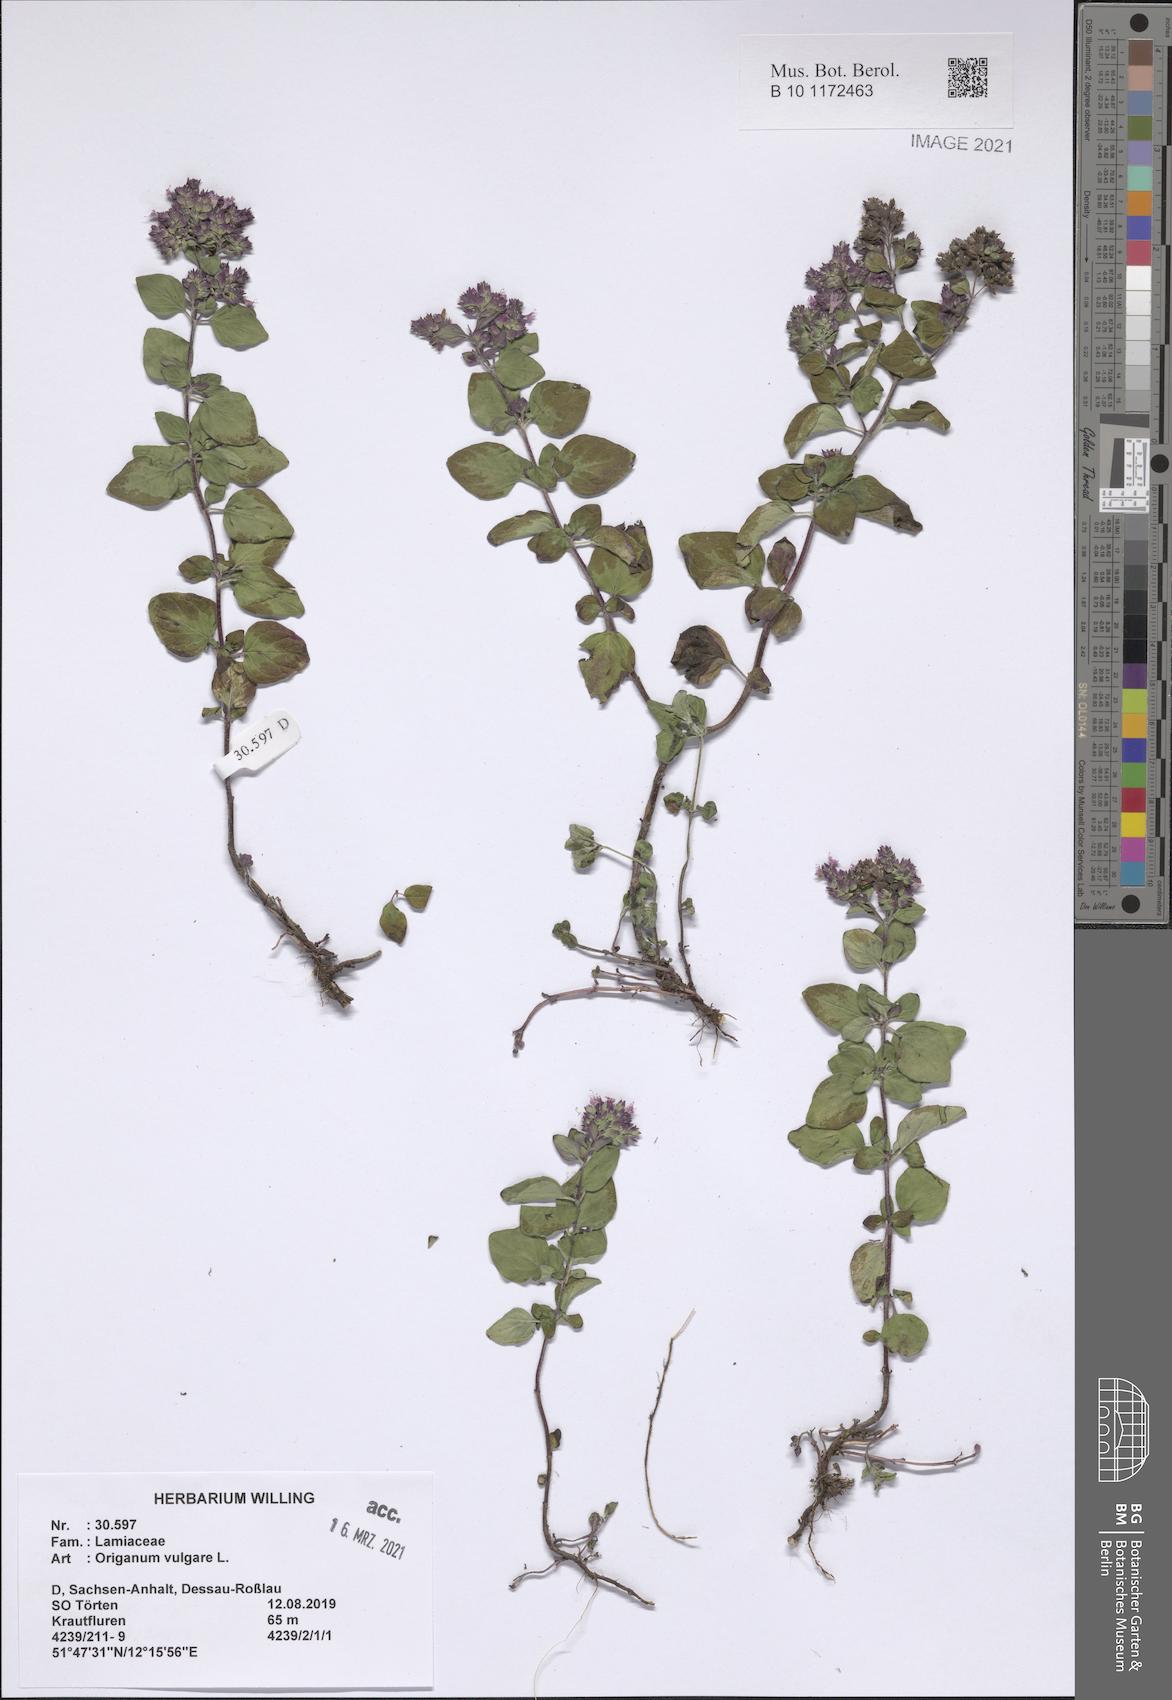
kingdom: Plantae
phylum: Tracheophyta
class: Magnoliopsida
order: Lamiales
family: Lamiaceae
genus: Origanum
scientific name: Origanum vulgare
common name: Wild marjoram
